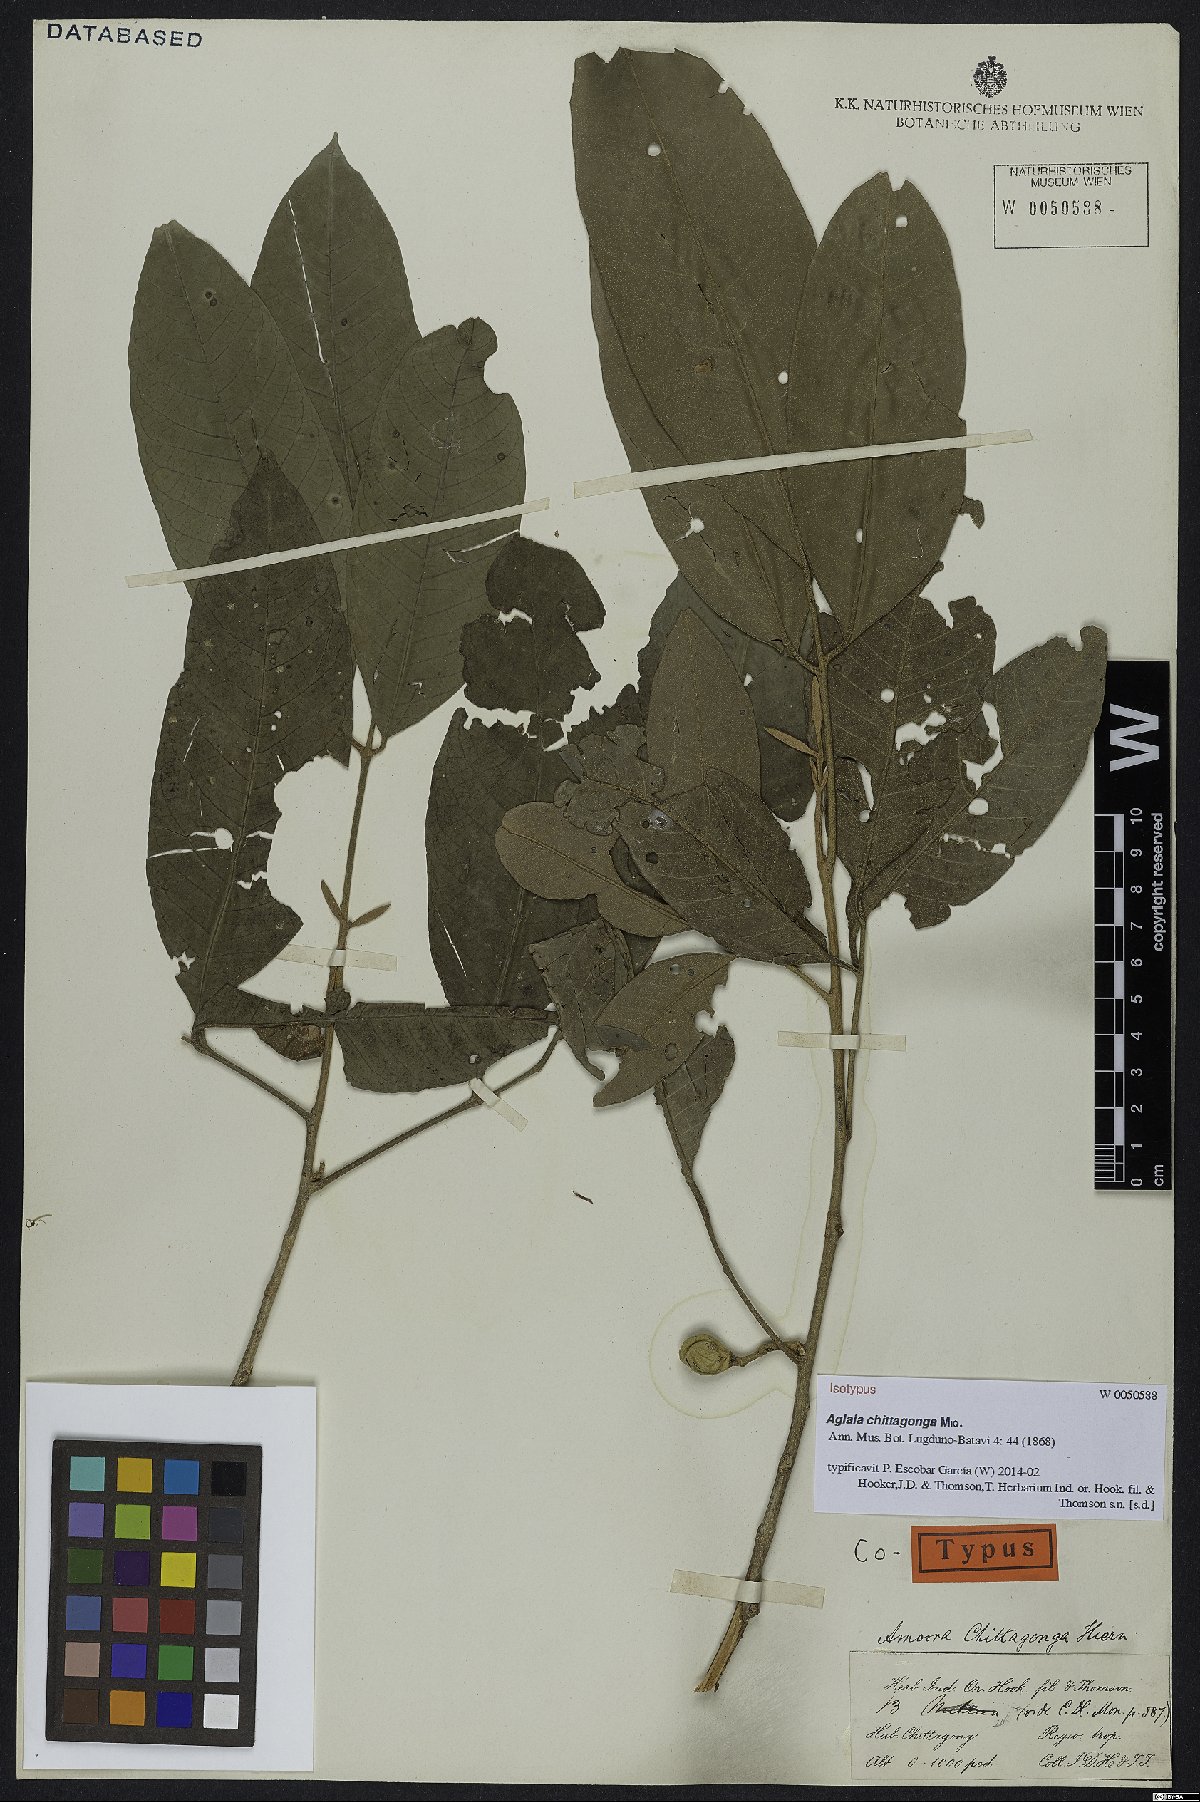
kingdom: Plantae
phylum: Tracheophyta
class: Magnoliopsida
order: Sapindales
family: Meliaceae
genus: Aglaia
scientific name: Aglaia chittagonga
